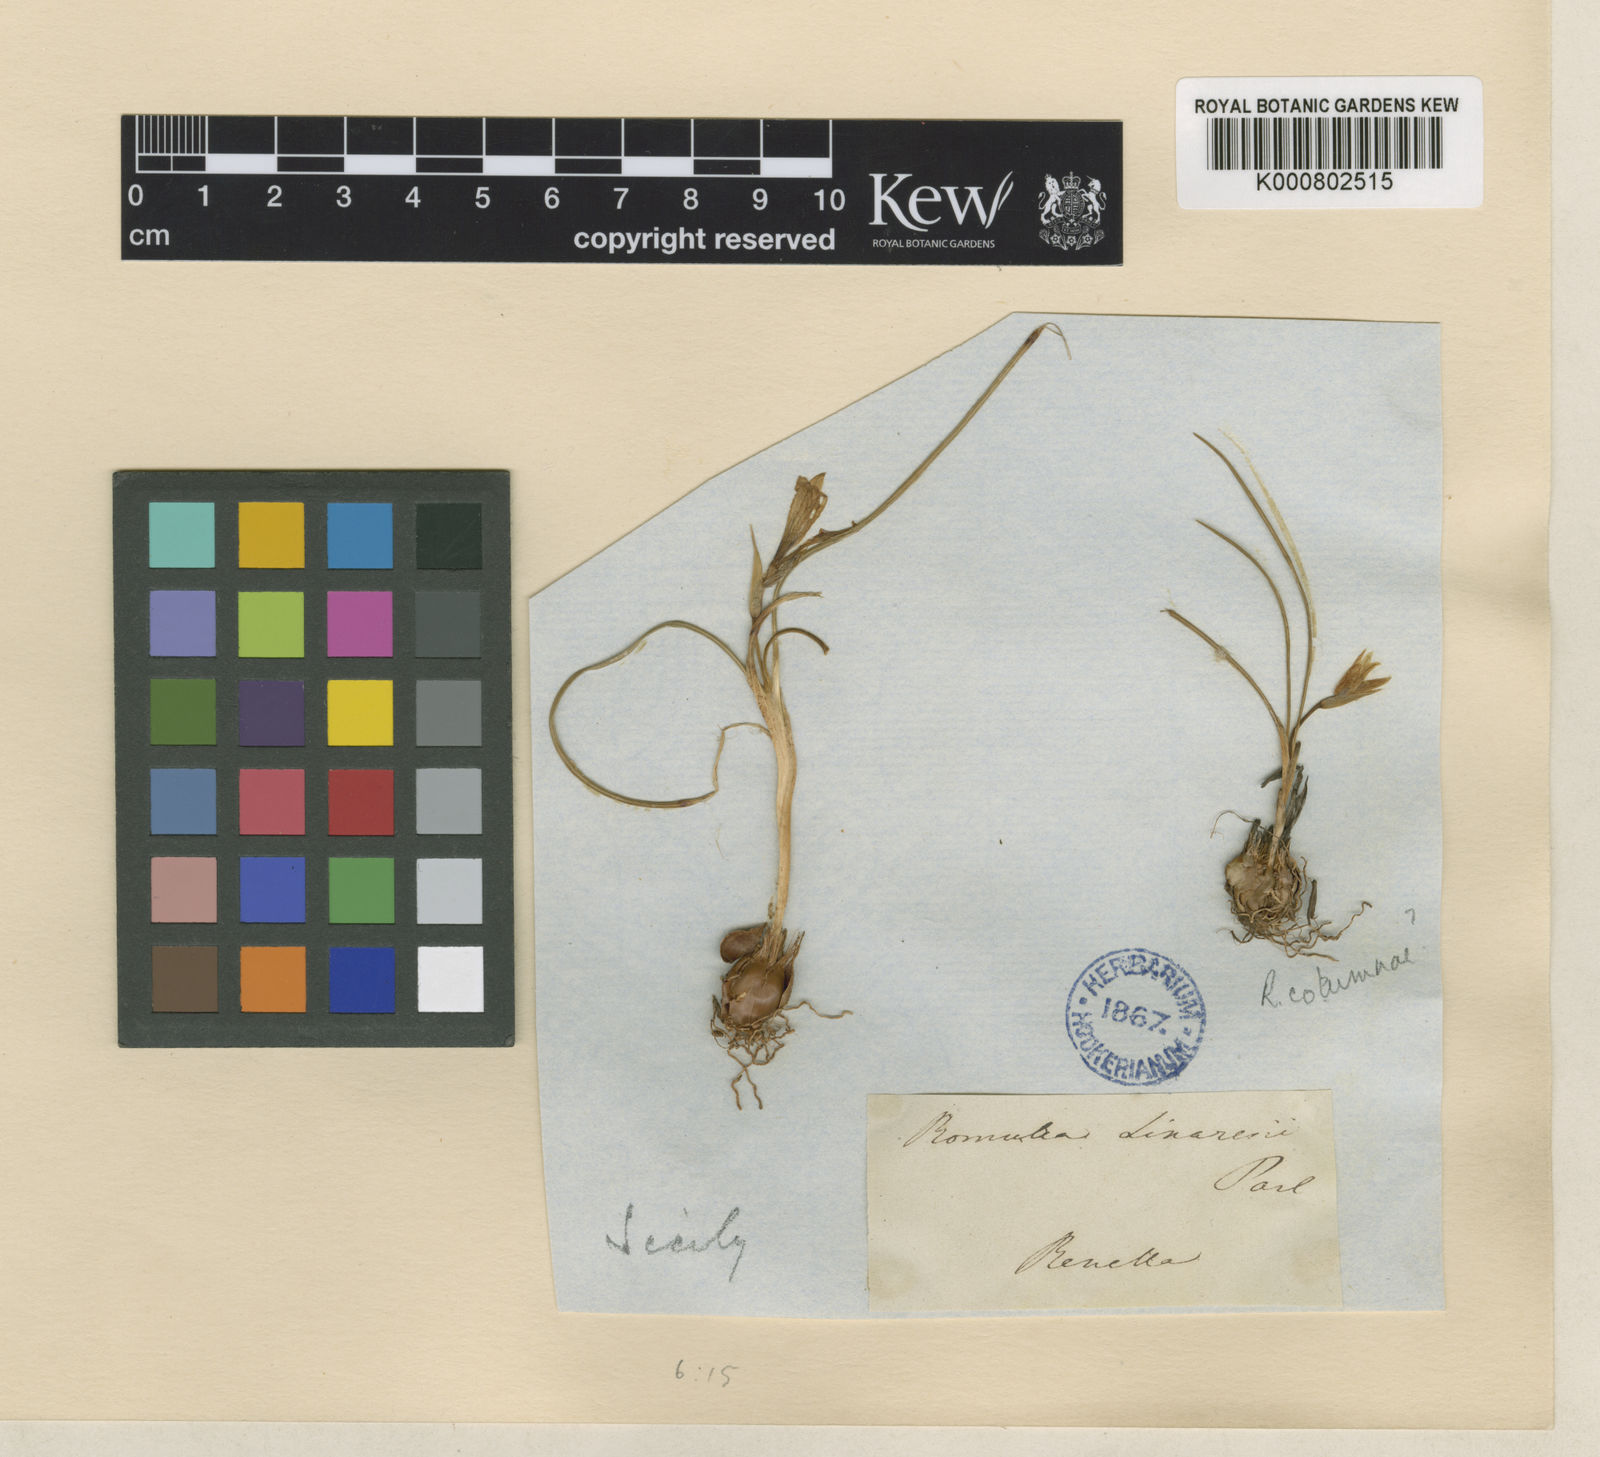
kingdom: Plantae
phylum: Tracheophyta
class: Liliopsida
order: Asparagales
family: Iridaceae
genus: Romulea
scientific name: Romulea linaresii
